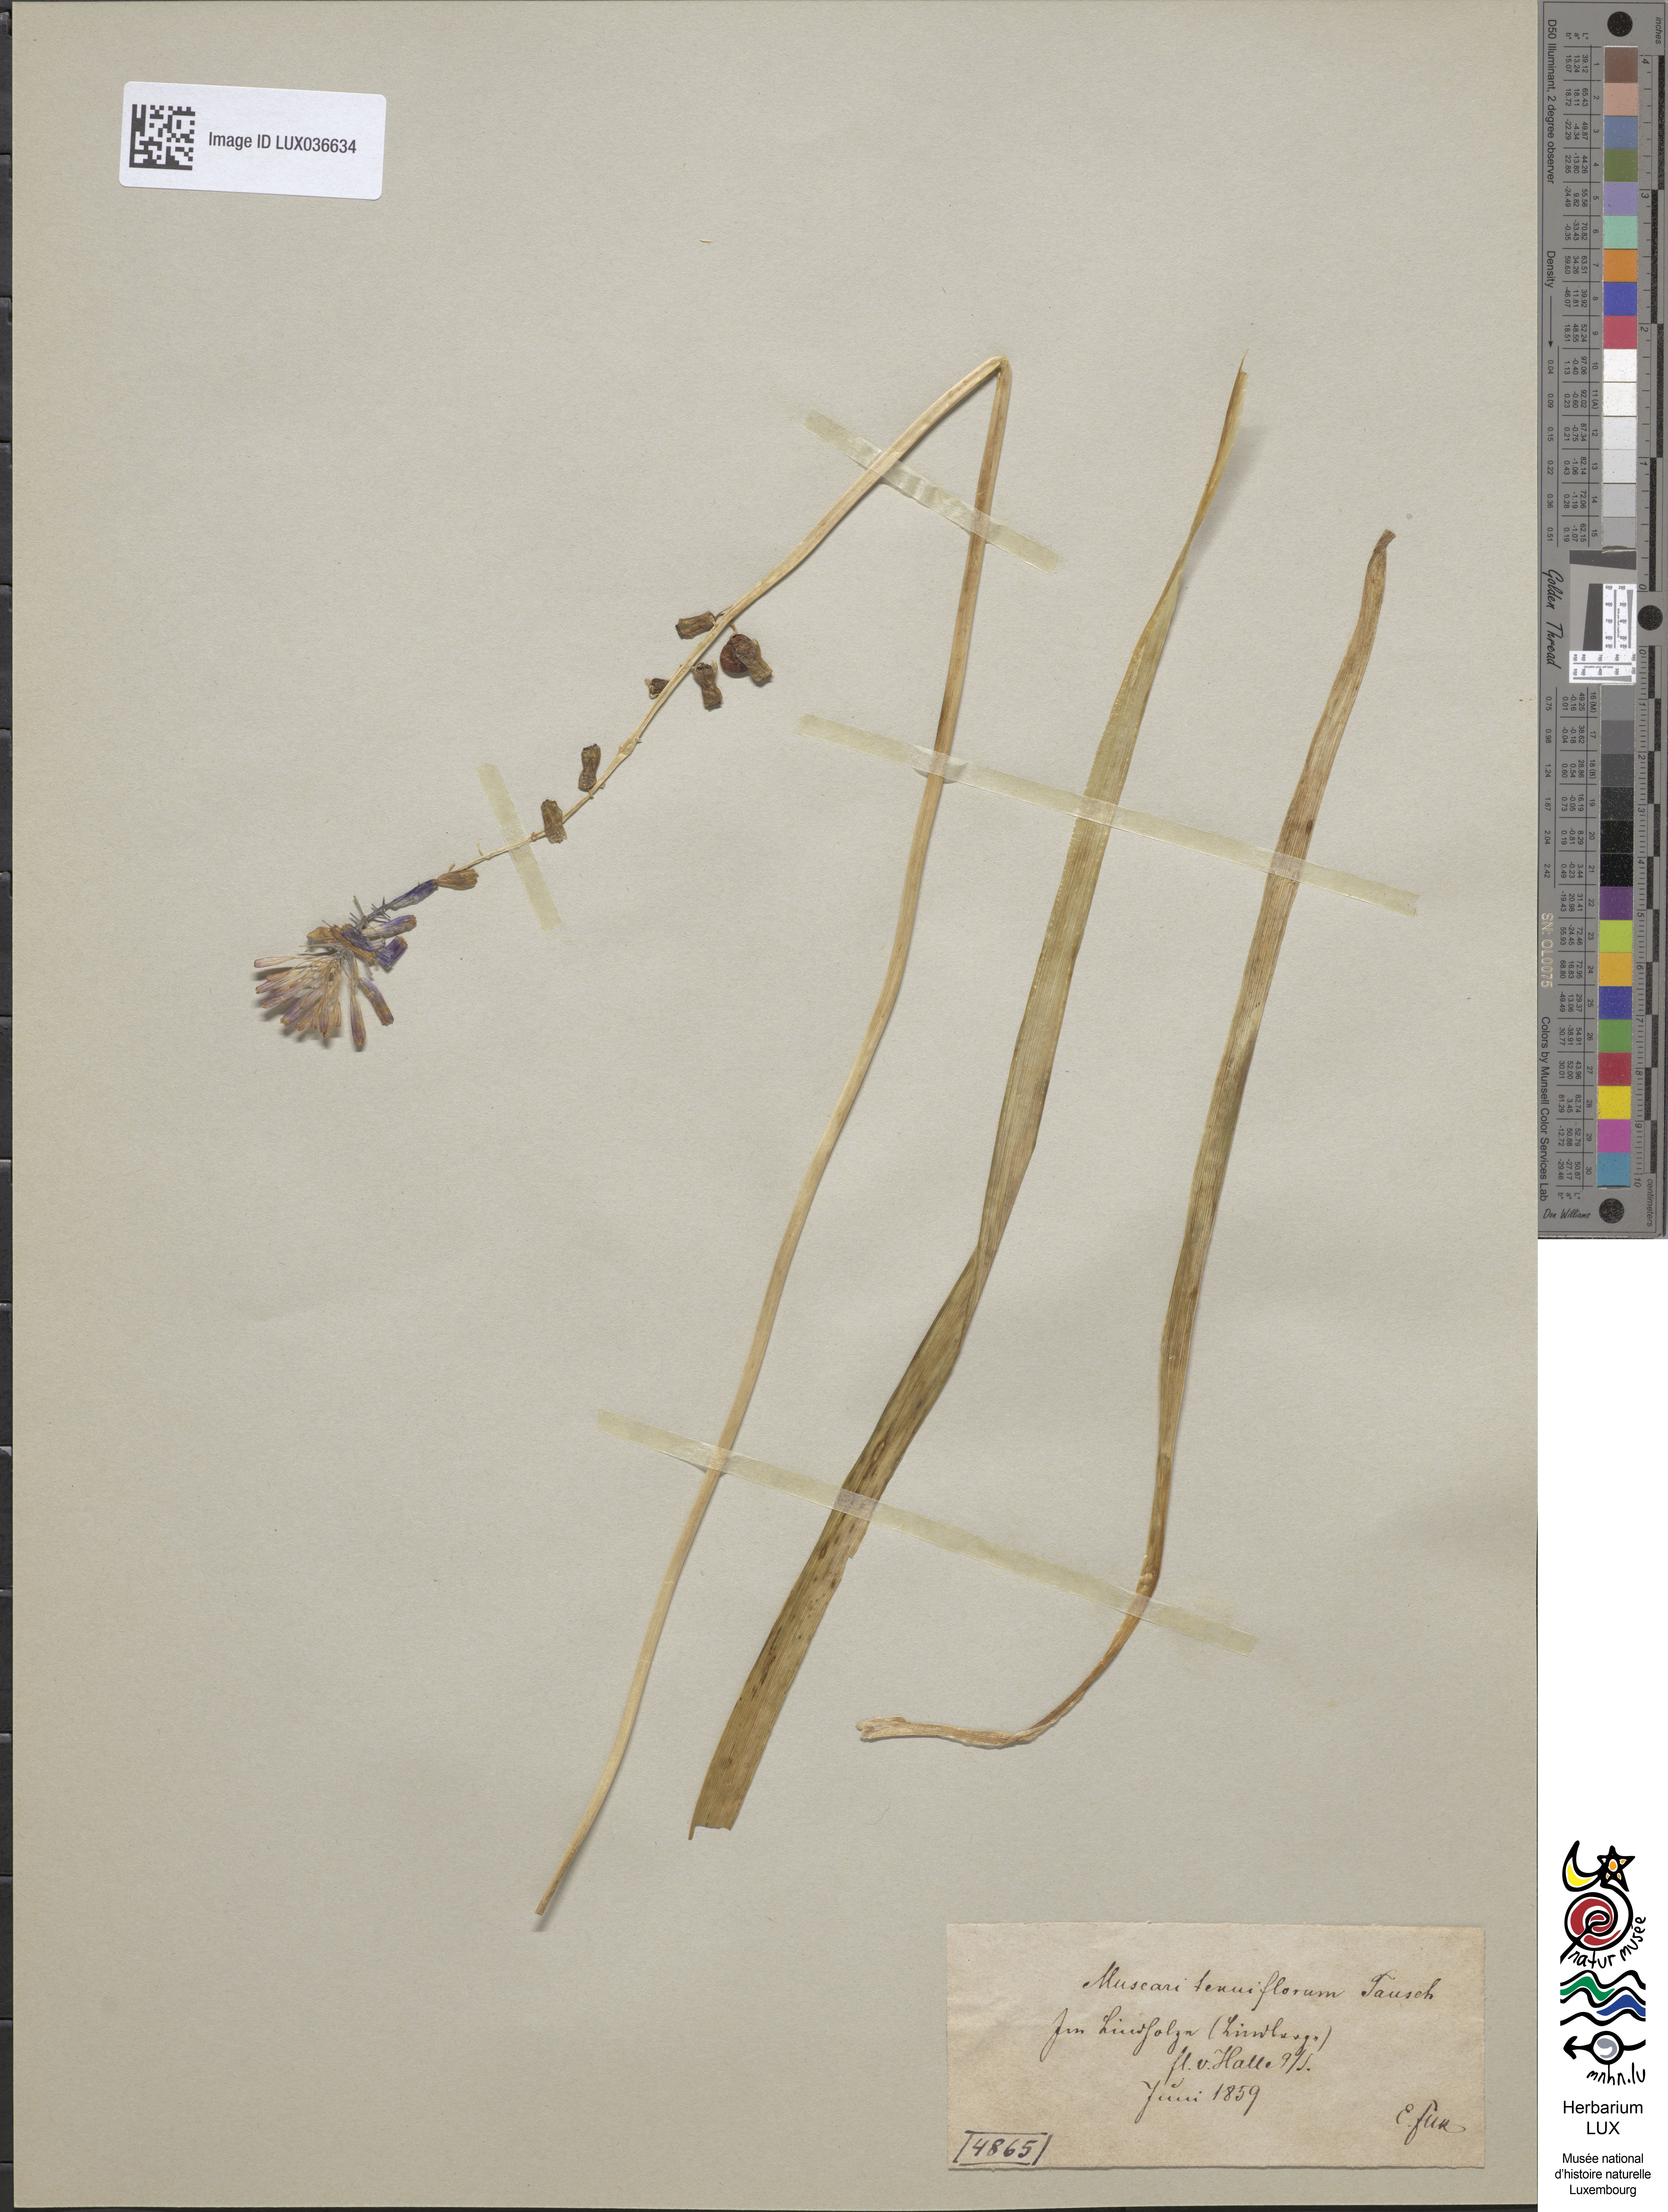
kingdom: Plantae
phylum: Tracheophyta
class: Liliopsida
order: Asparagales
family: Asparagaceae
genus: Muscari
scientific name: Muscari tenuiflorum
